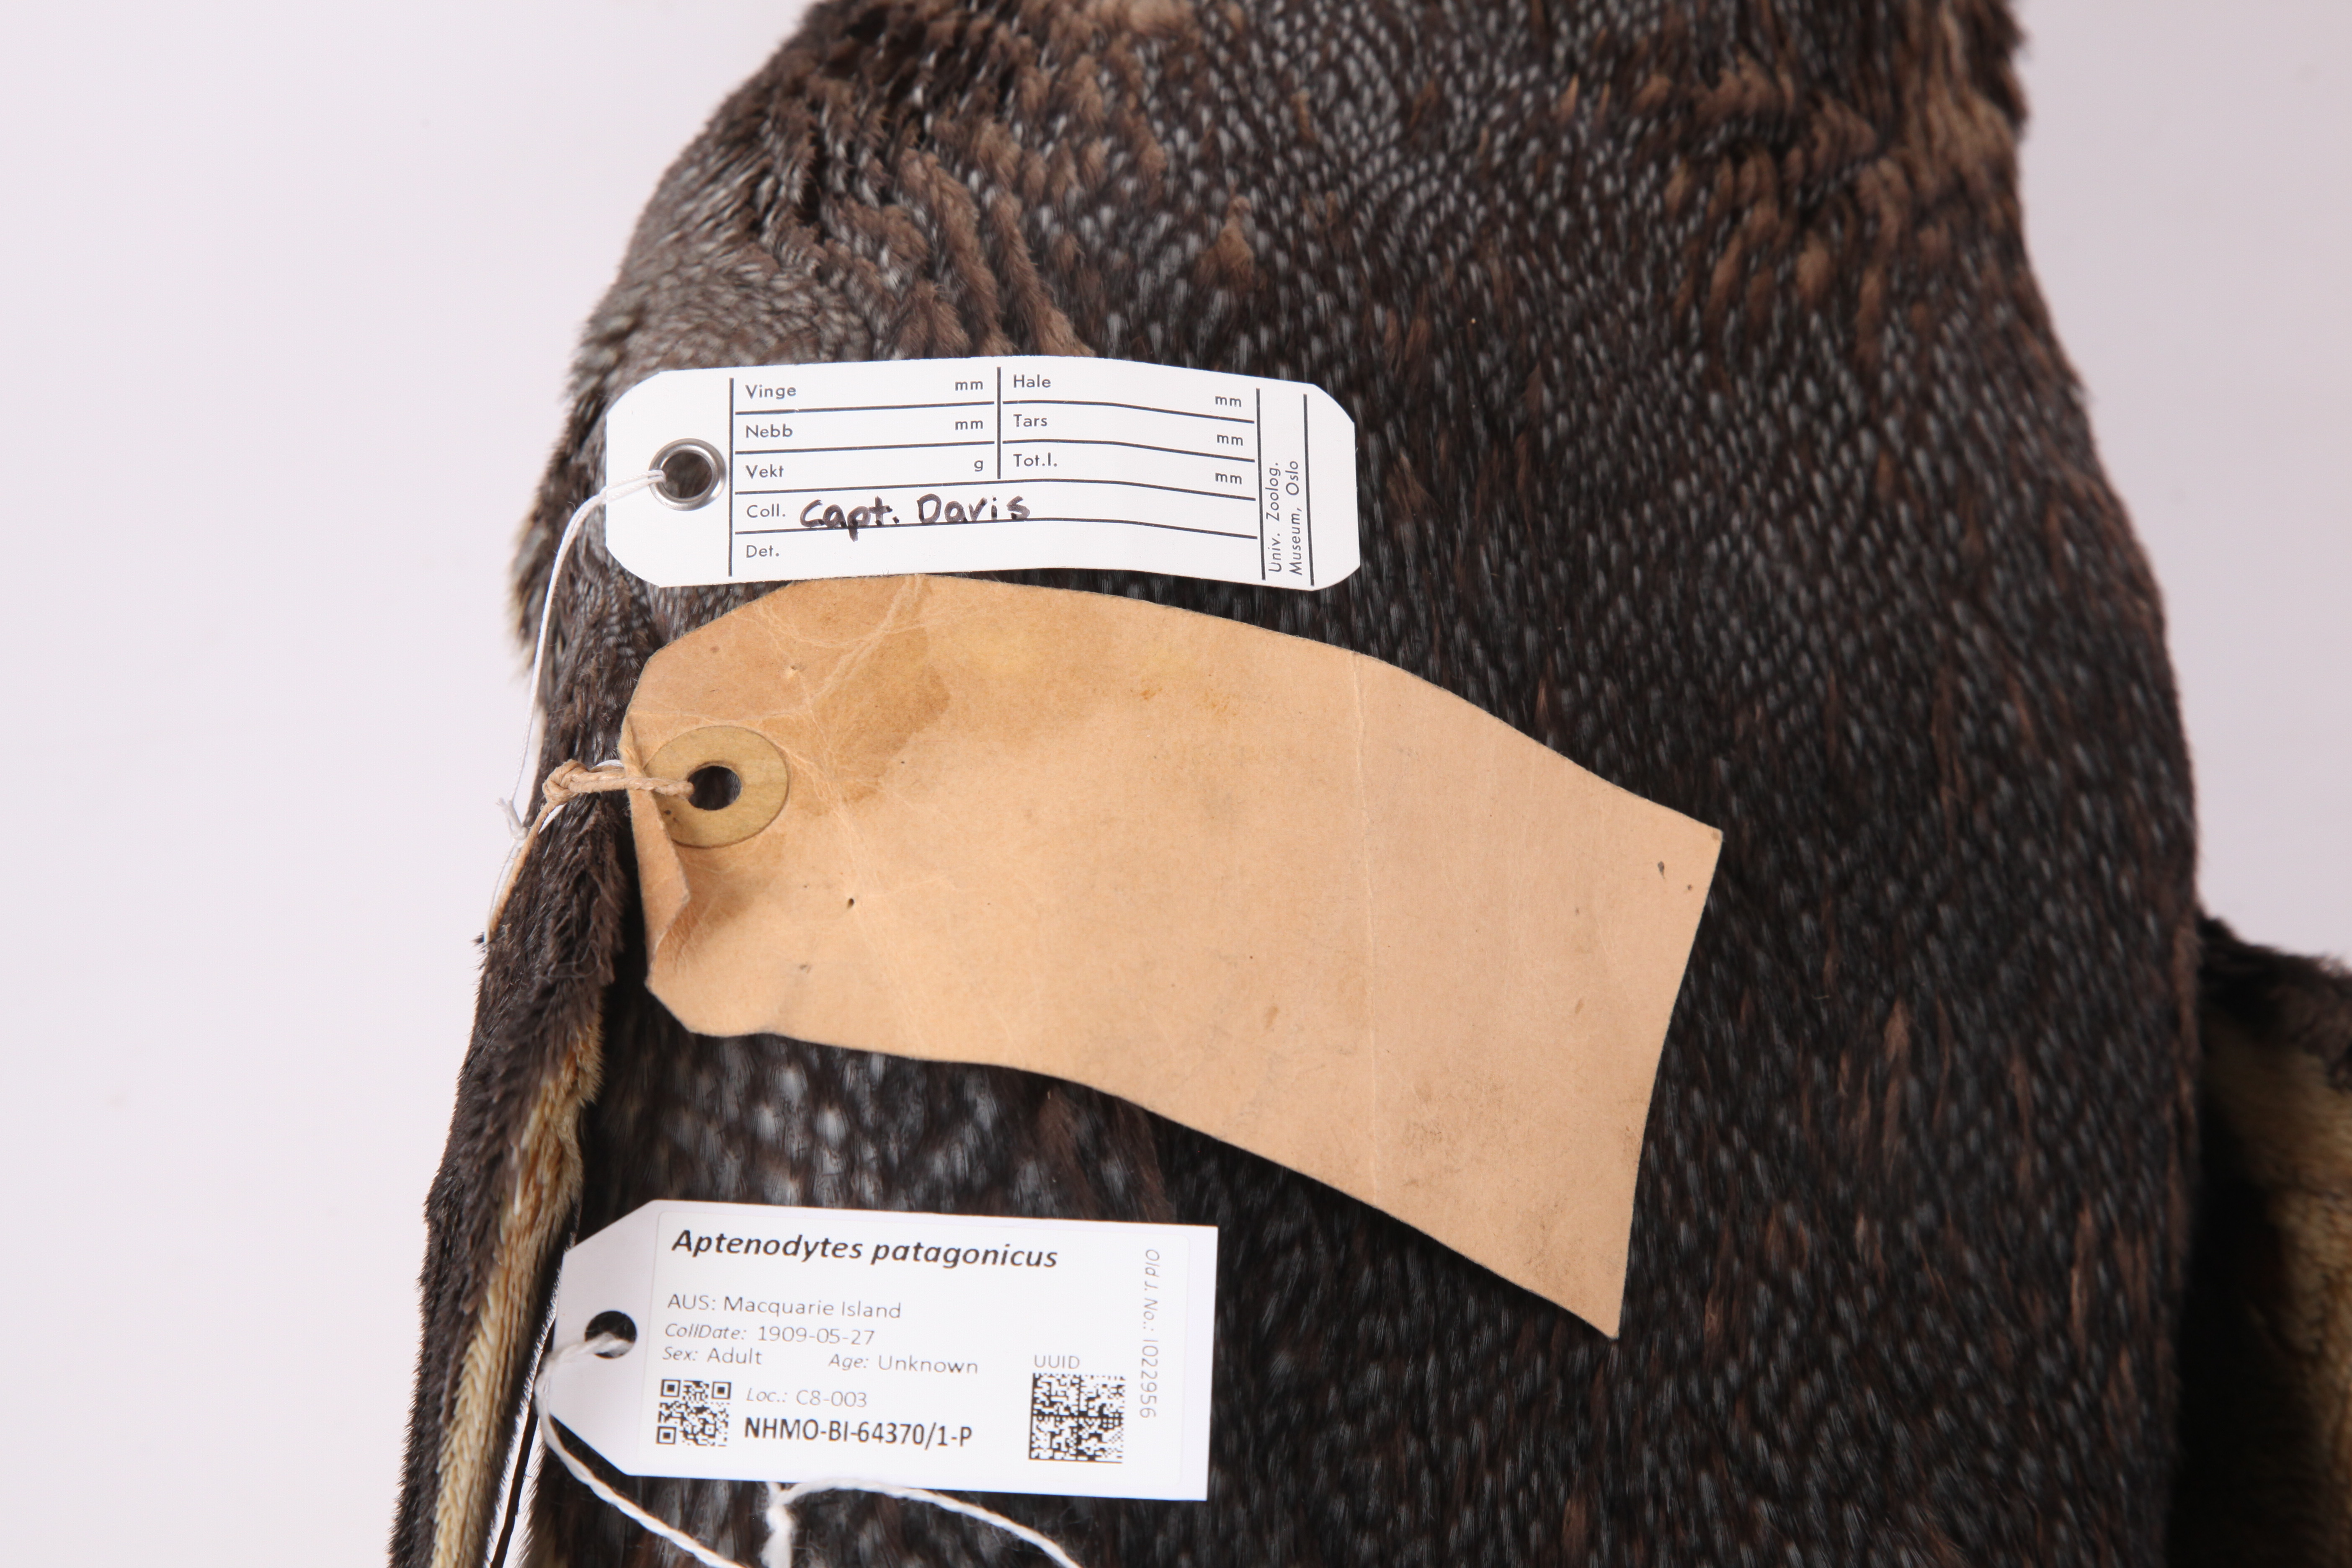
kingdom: Animalia
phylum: Chordata
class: Aves
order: Sphenisciformes
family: Spheniscidae
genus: Aptenodytes
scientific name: Aptenodytes patagonicus
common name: King penguin
